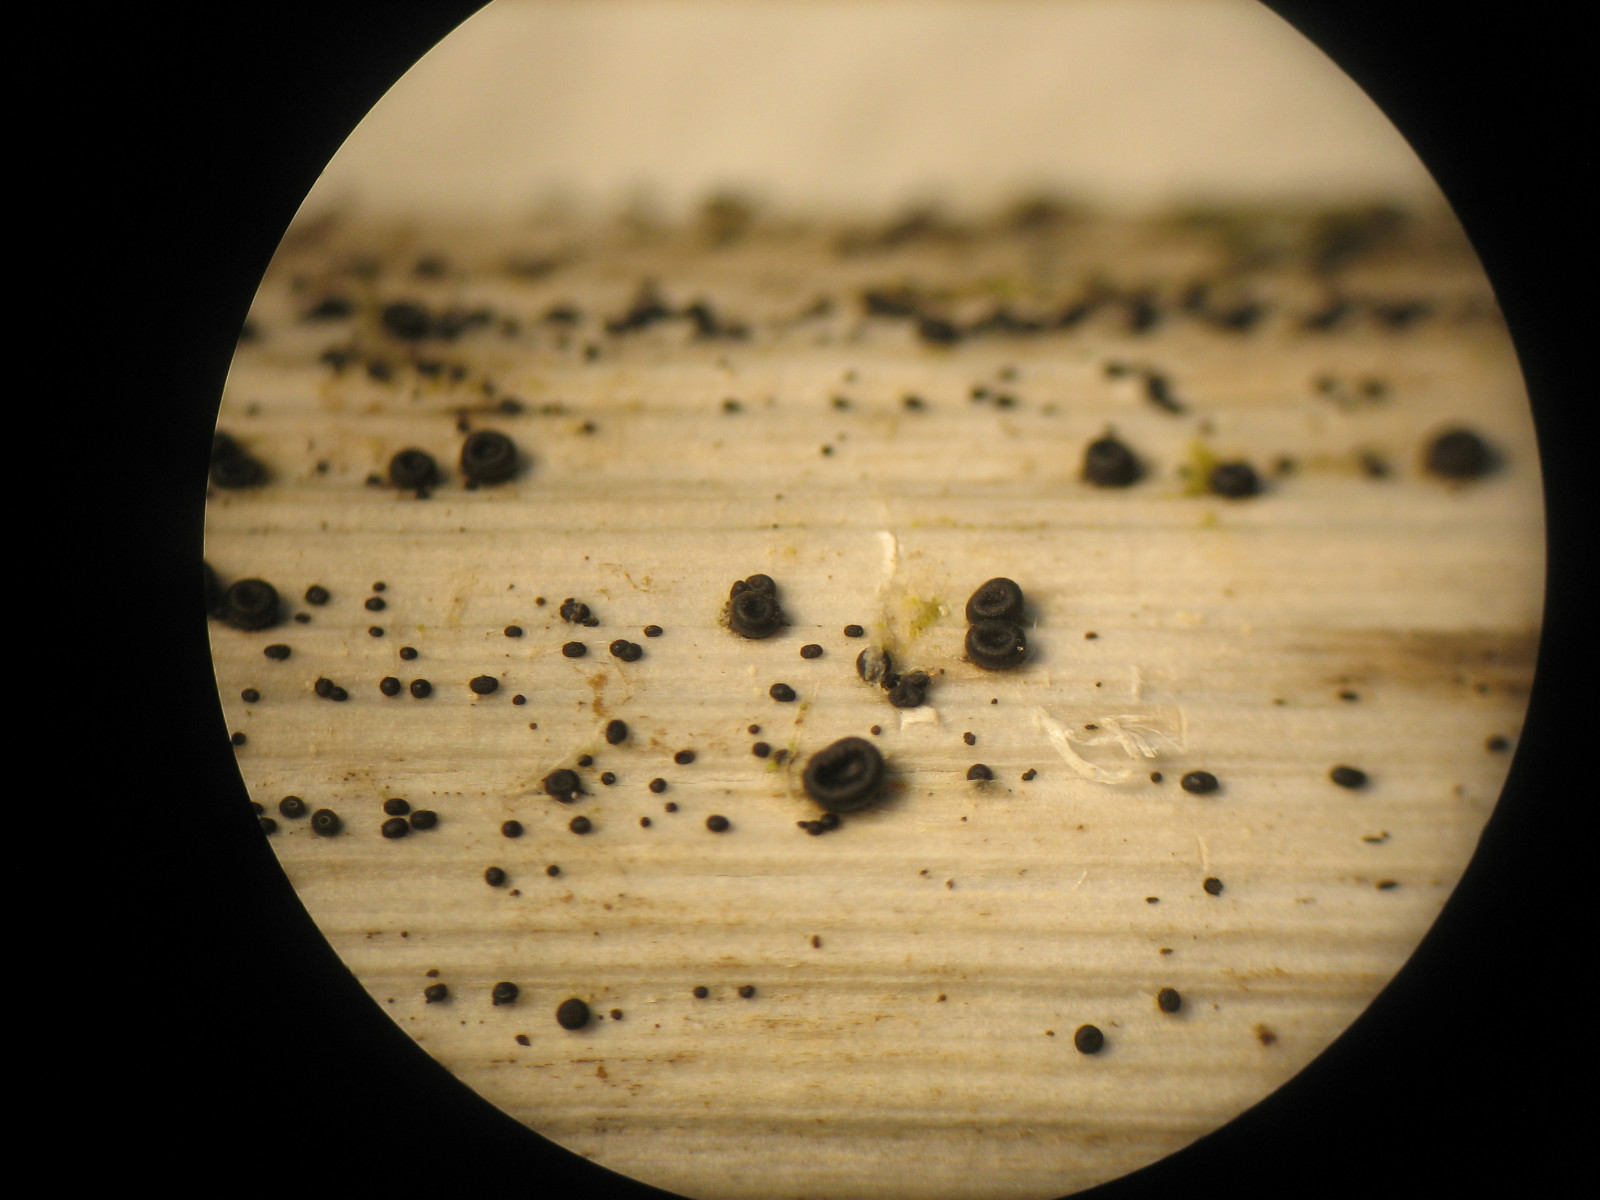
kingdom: Fungi
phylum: Ascomycota
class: Leotiomycetes
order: Helotiales
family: Heterosphaeriaceae
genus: Heterosphaeria
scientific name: Heterosphaeria
